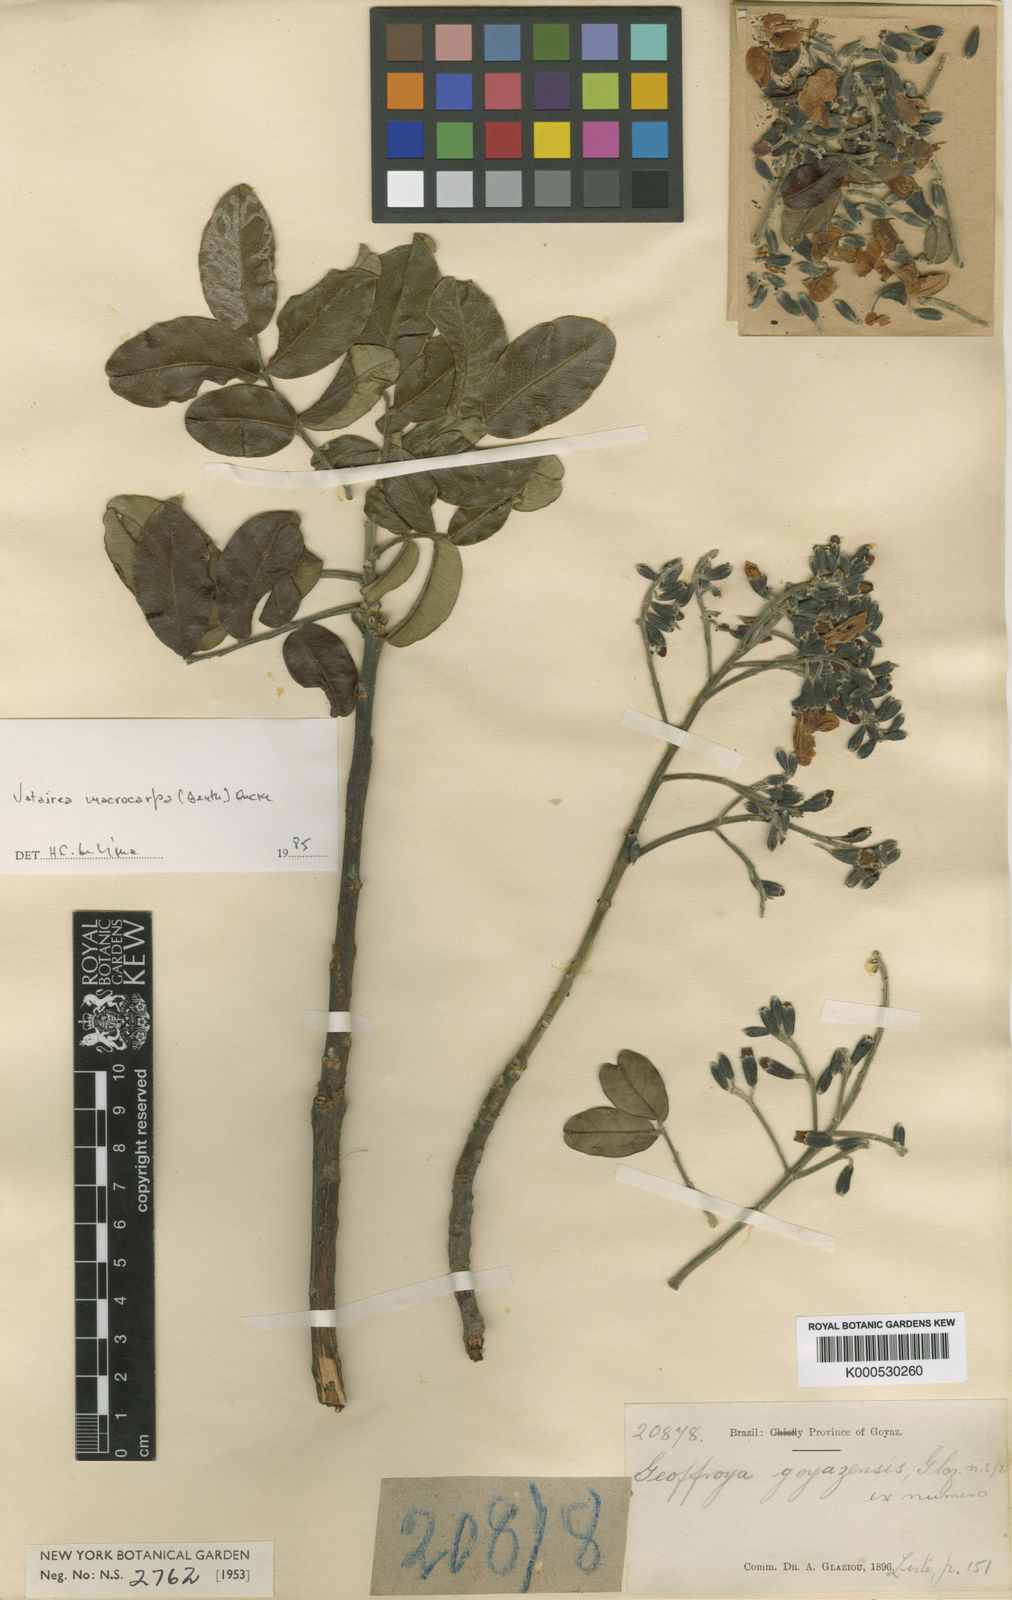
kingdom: Plantae
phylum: Tracheophyta
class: Magnoliopsida
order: Fabales
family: Fabaceae
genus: Vatairea
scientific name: Vatairea macrocarpa
